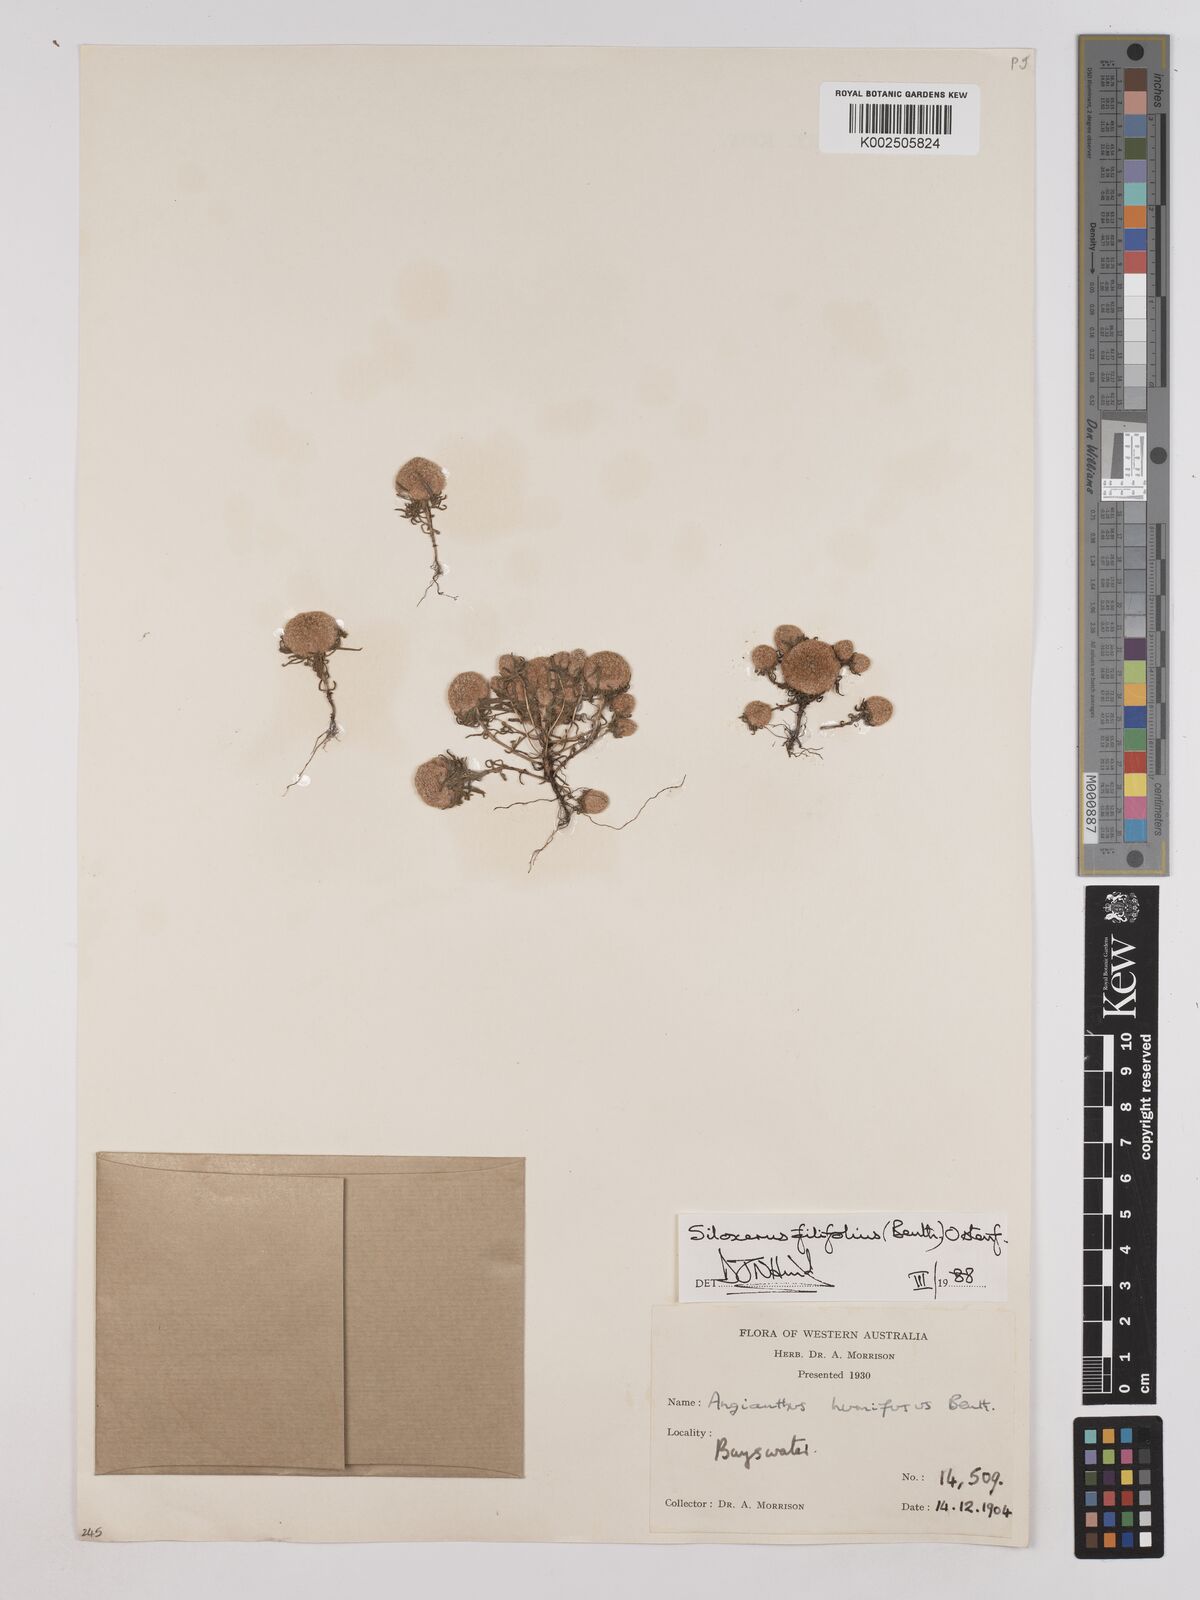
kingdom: Plantae
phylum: Tracheophyta
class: Magnoliopsida
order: Asterales
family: Asteraceae
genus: Siloxerus
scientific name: Siloxerus filifolius
